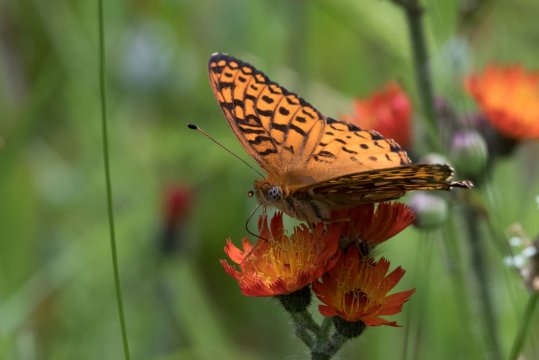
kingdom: Animalia
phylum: Arthropoda
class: Insecta
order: Lepidoptera
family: Nymphalidae
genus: Speyeria
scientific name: Speyeria atlantis
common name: Atlantis Fritillary
